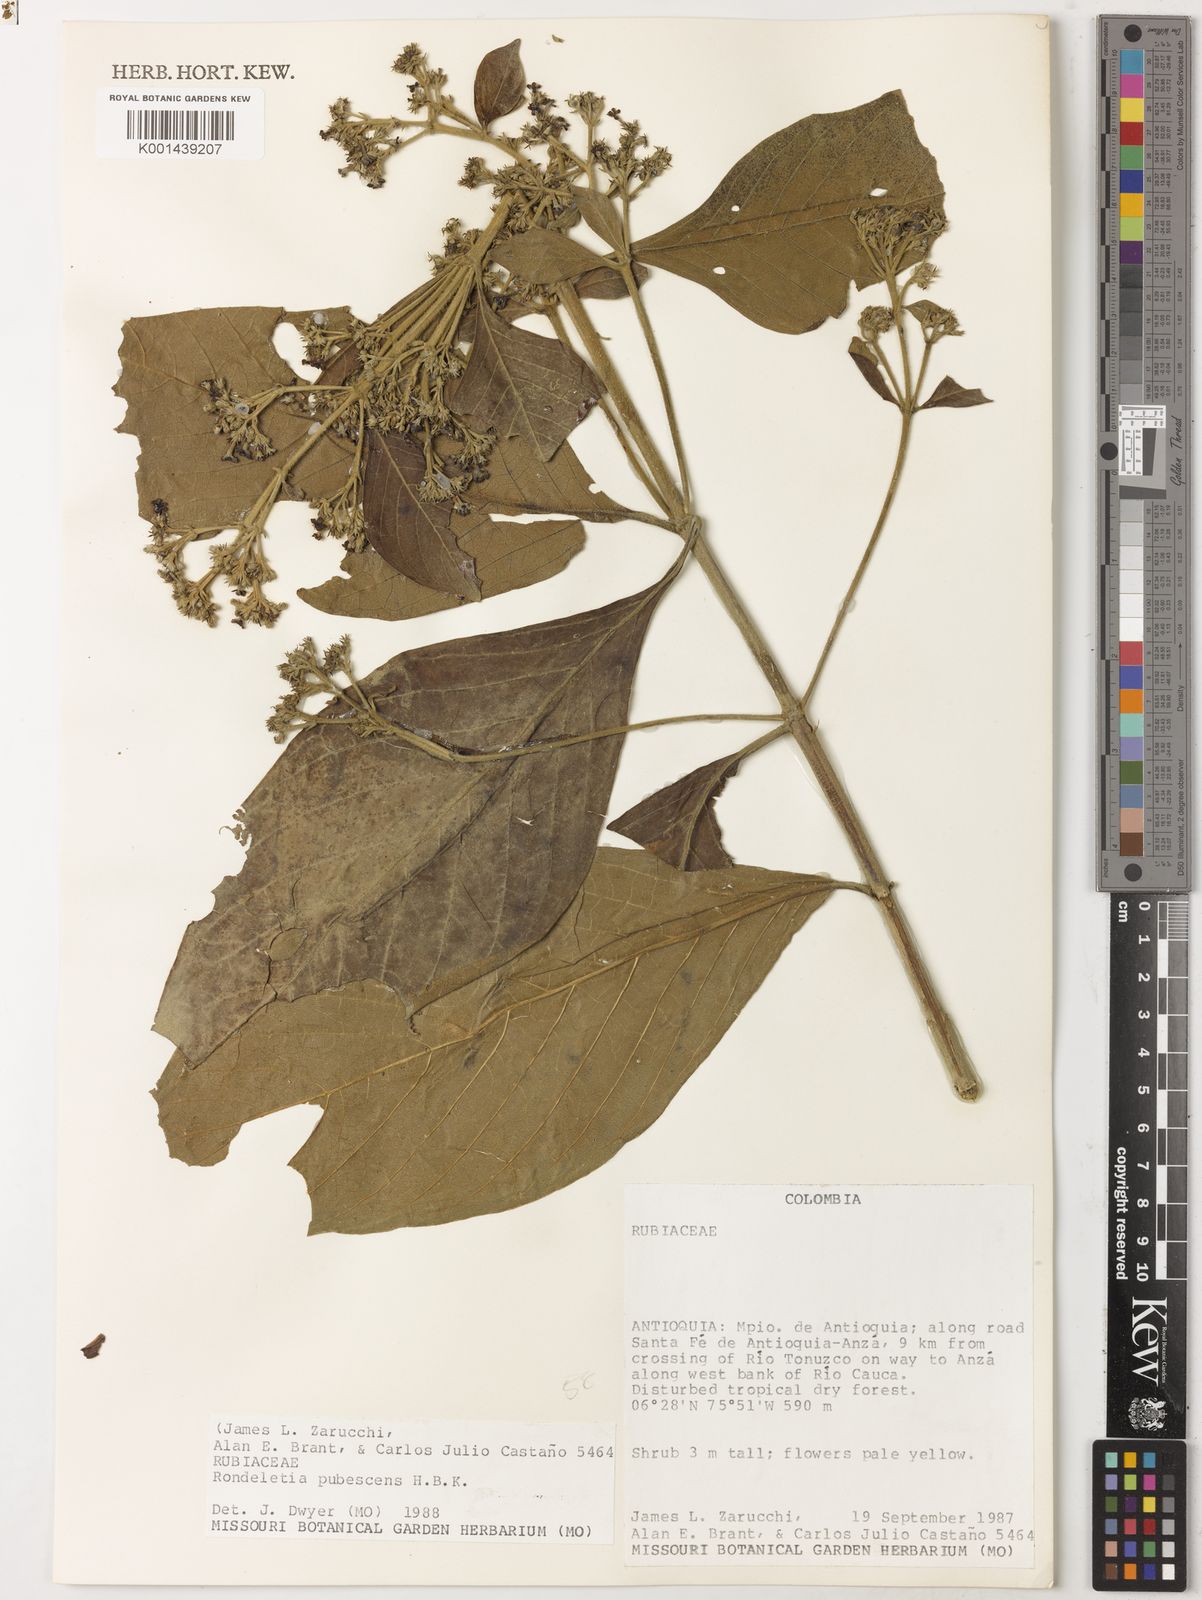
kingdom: Plantae
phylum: Tracheophyta
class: Magnoliopsida
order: Gentianales
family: Rubiaceae
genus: Rondeletia
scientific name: Rondeletia pubescens
